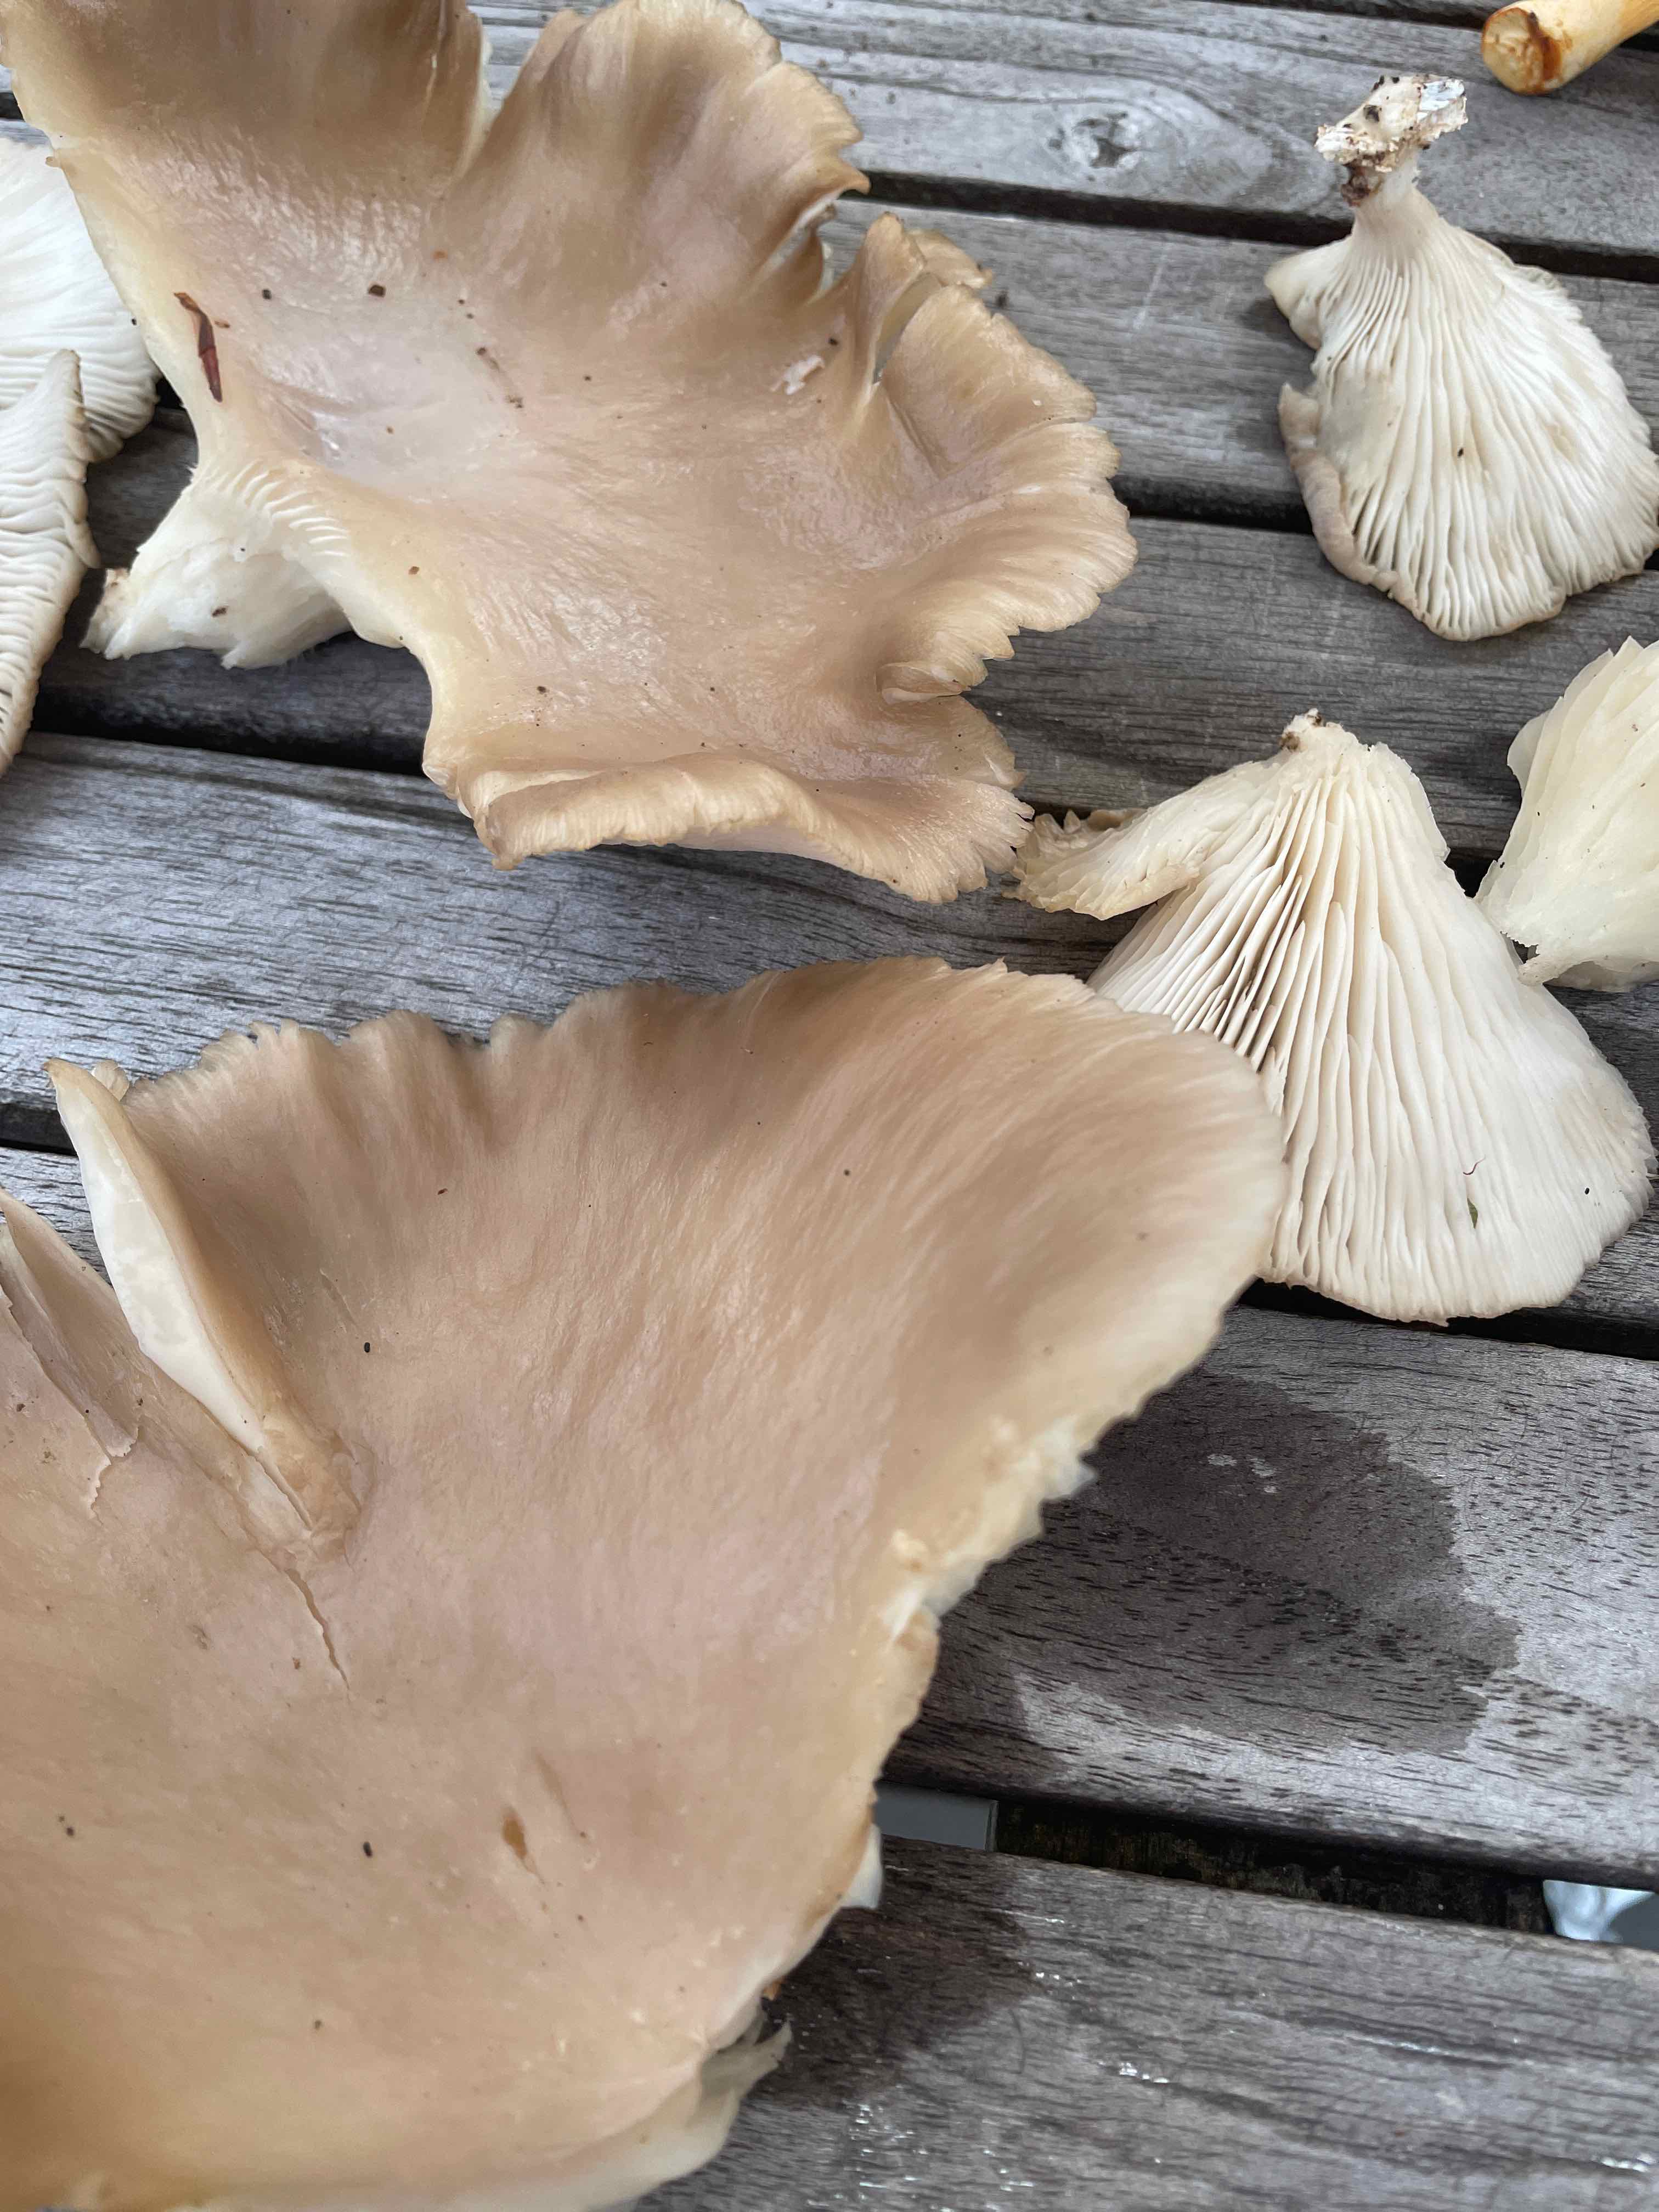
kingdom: Fungi
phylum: Basidiomycota
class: Agaricomycetes
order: Agaricales
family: Pleurotaceae
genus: Pleurotus
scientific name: Pleurotus pulmonarius
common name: sommer-østershat
